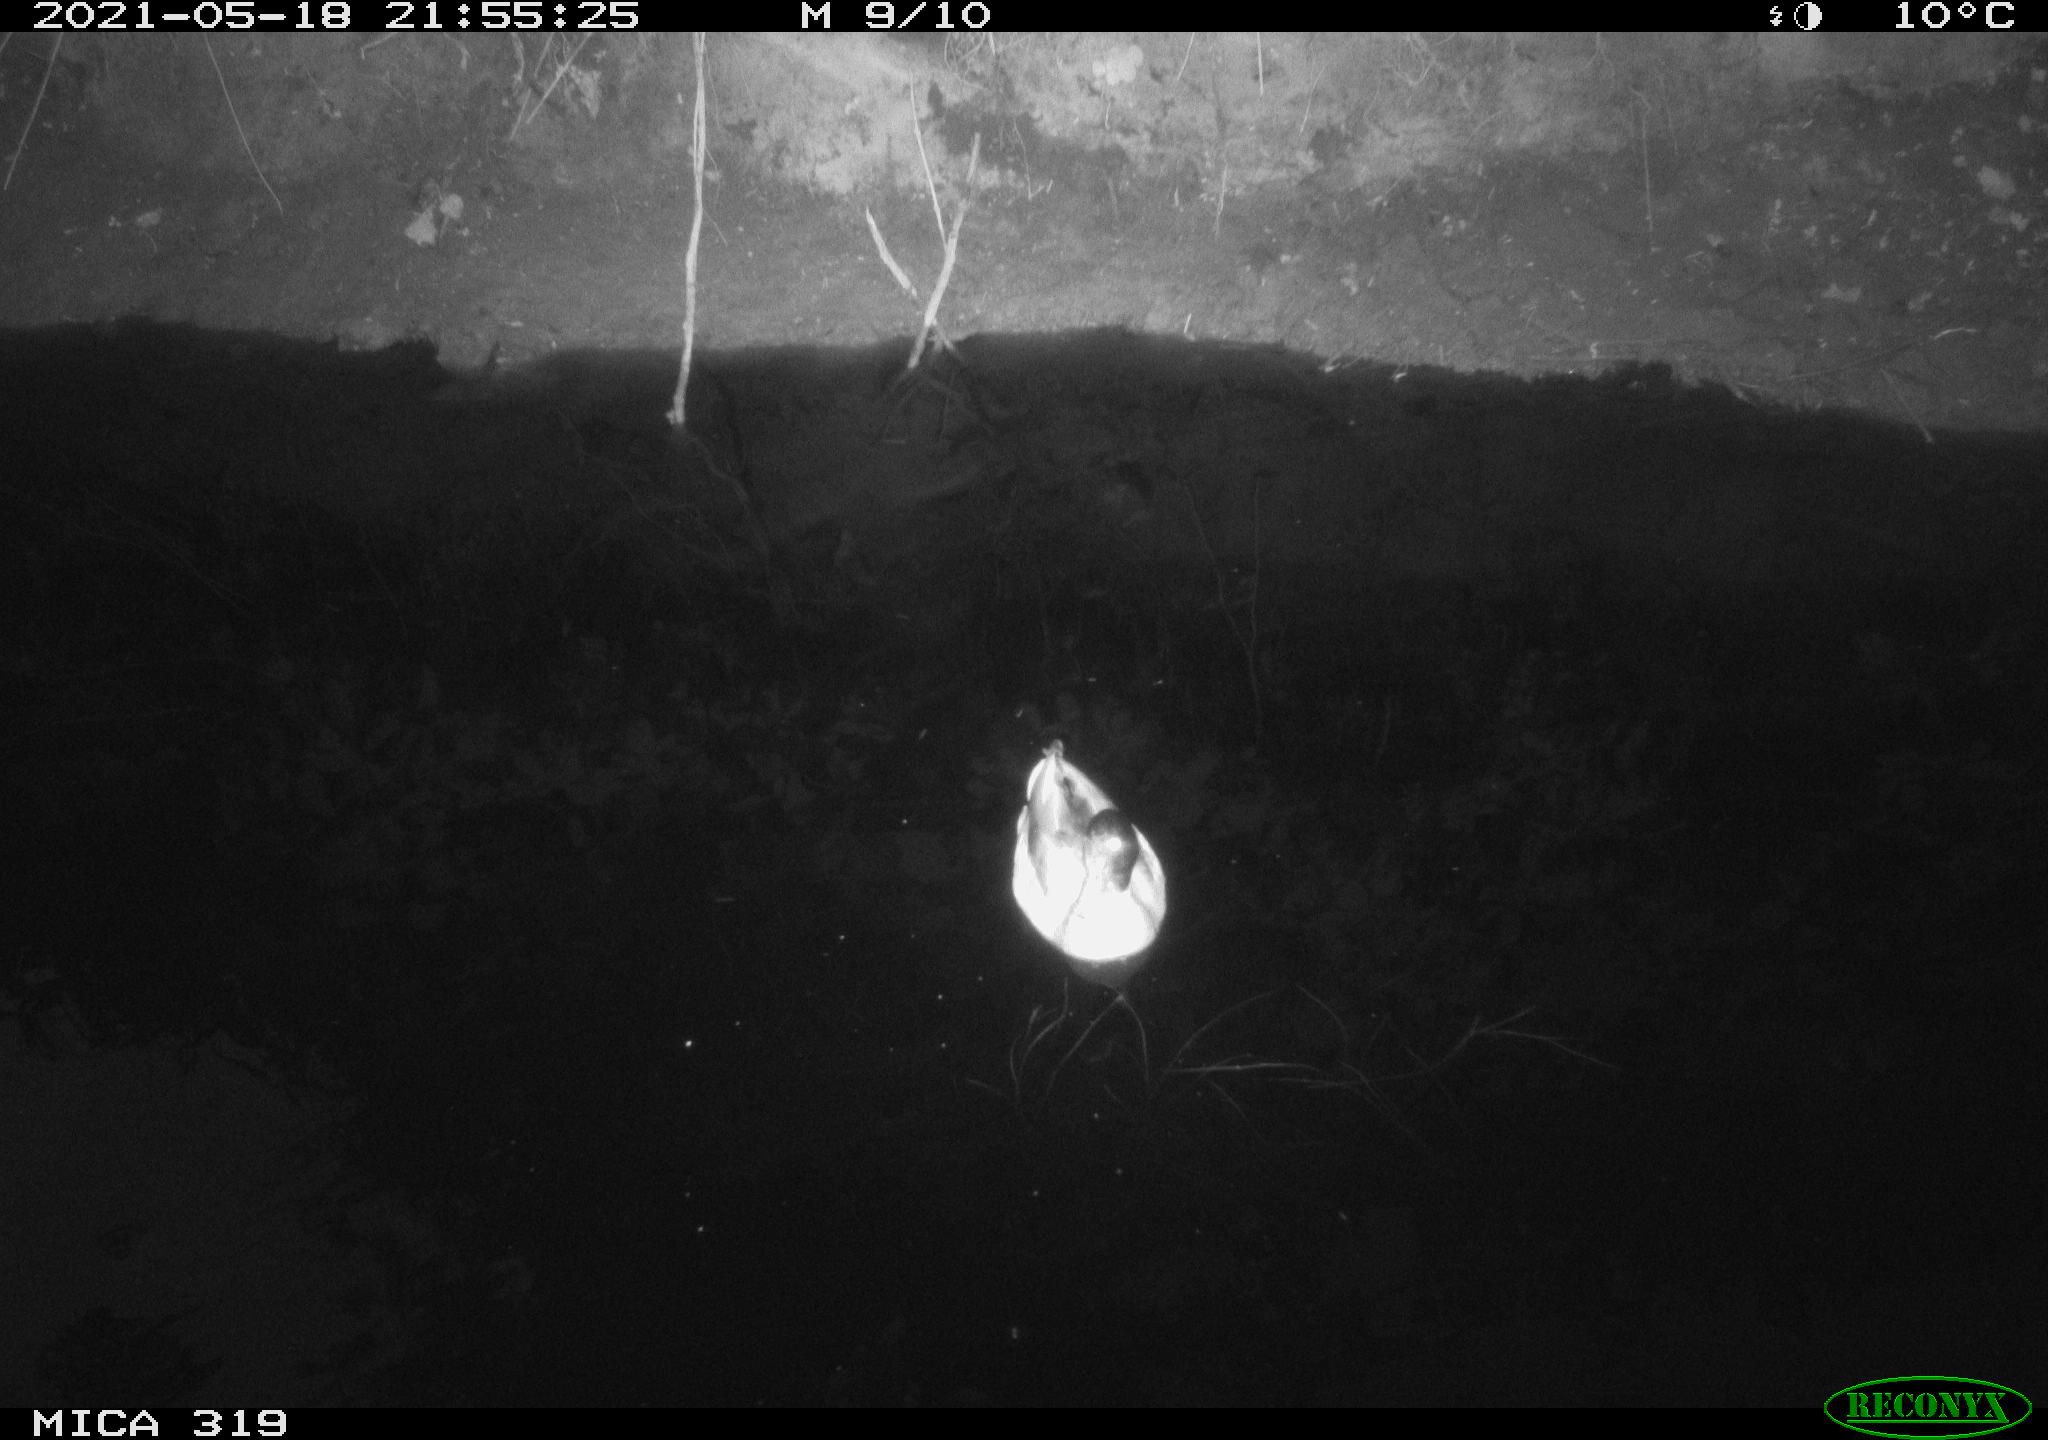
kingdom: Animalia
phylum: Chordata
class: Aves
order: Anseriformes
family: Anatidae
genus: Anas
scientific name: Anas platyrhynchos
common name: Mallard
